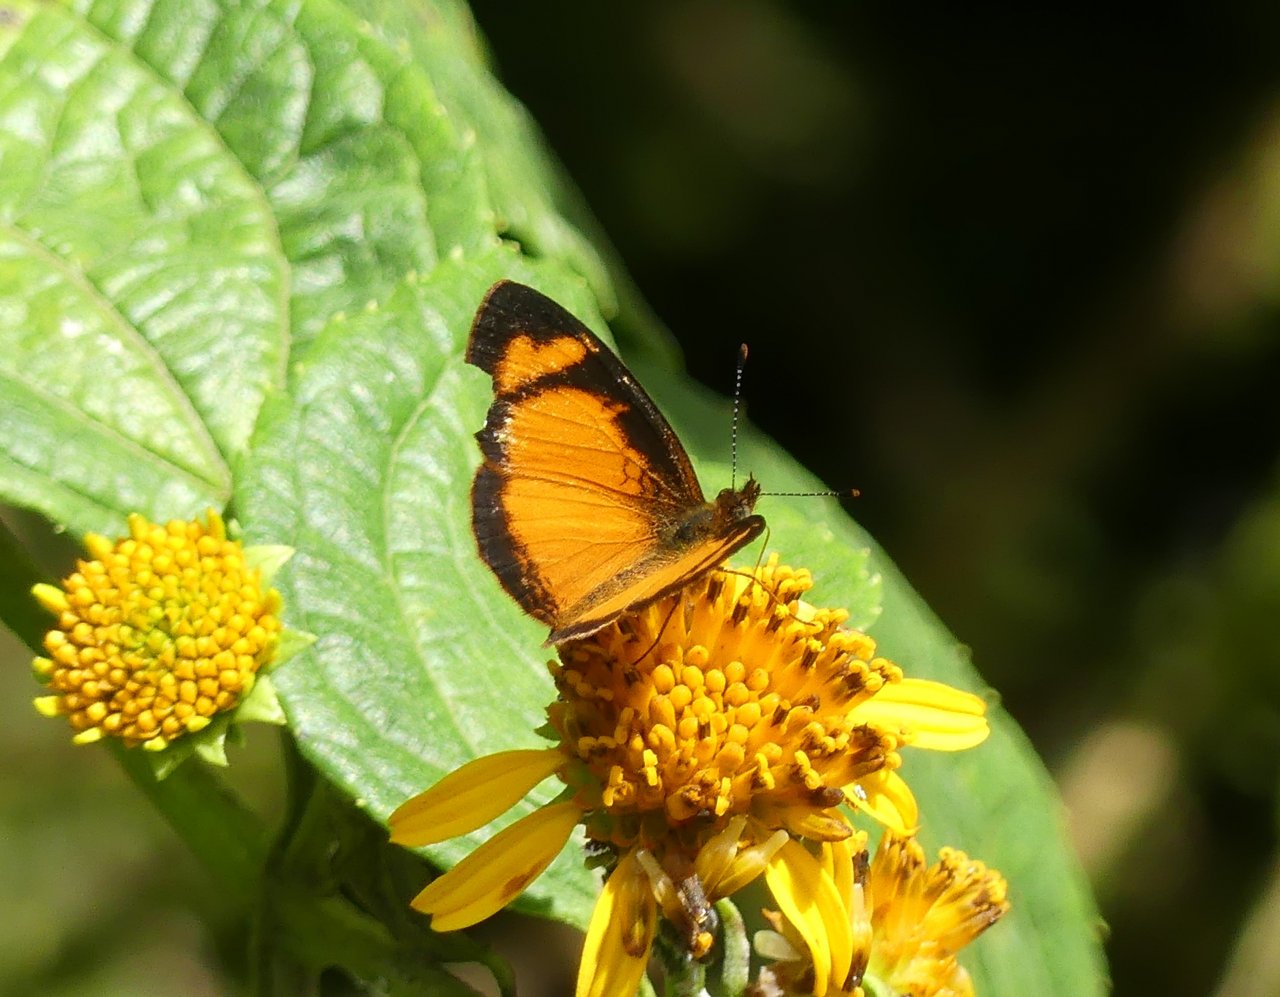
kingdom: Animalia
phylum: Arthropoda
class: Insecta
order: Lepidoptera
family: Nymphalidae
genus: Tegosa
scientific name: Tegosa anieta
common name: Black-bordered Crescent
